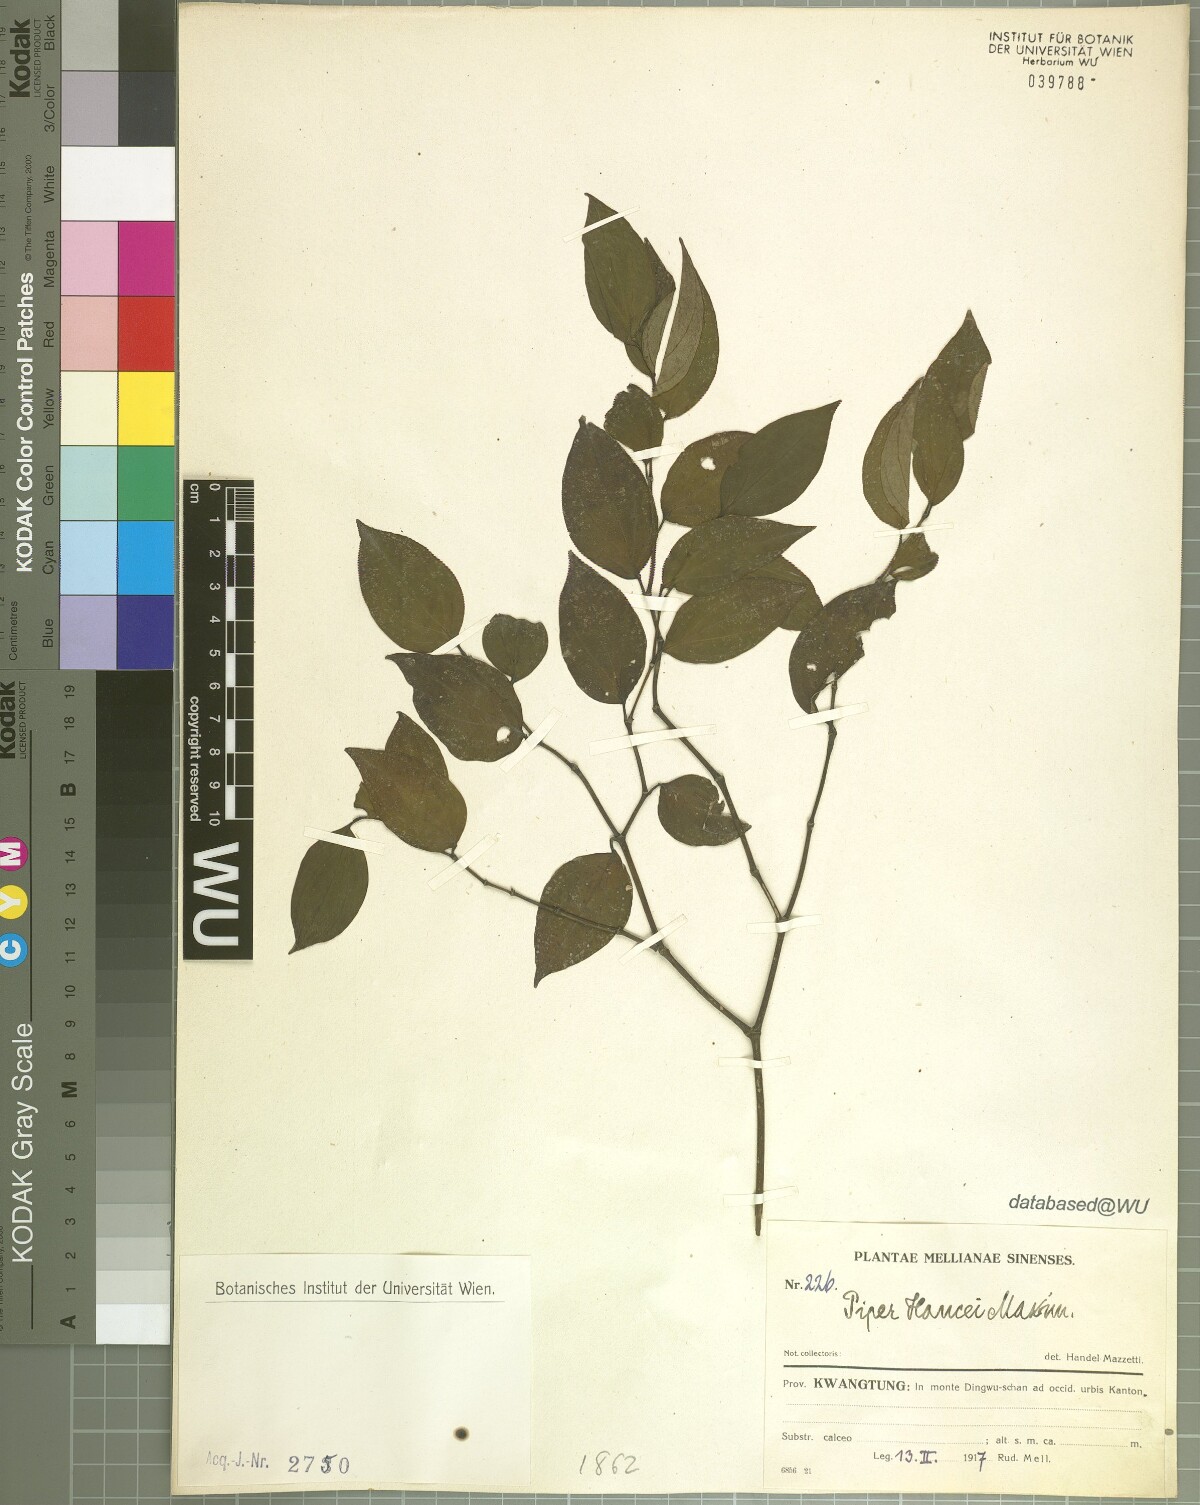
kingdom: Plantae
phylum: Tracheophyta
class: Magnoliopsida
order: Piperales
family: Piperaceae
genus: Piper
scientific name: Piper hancei
